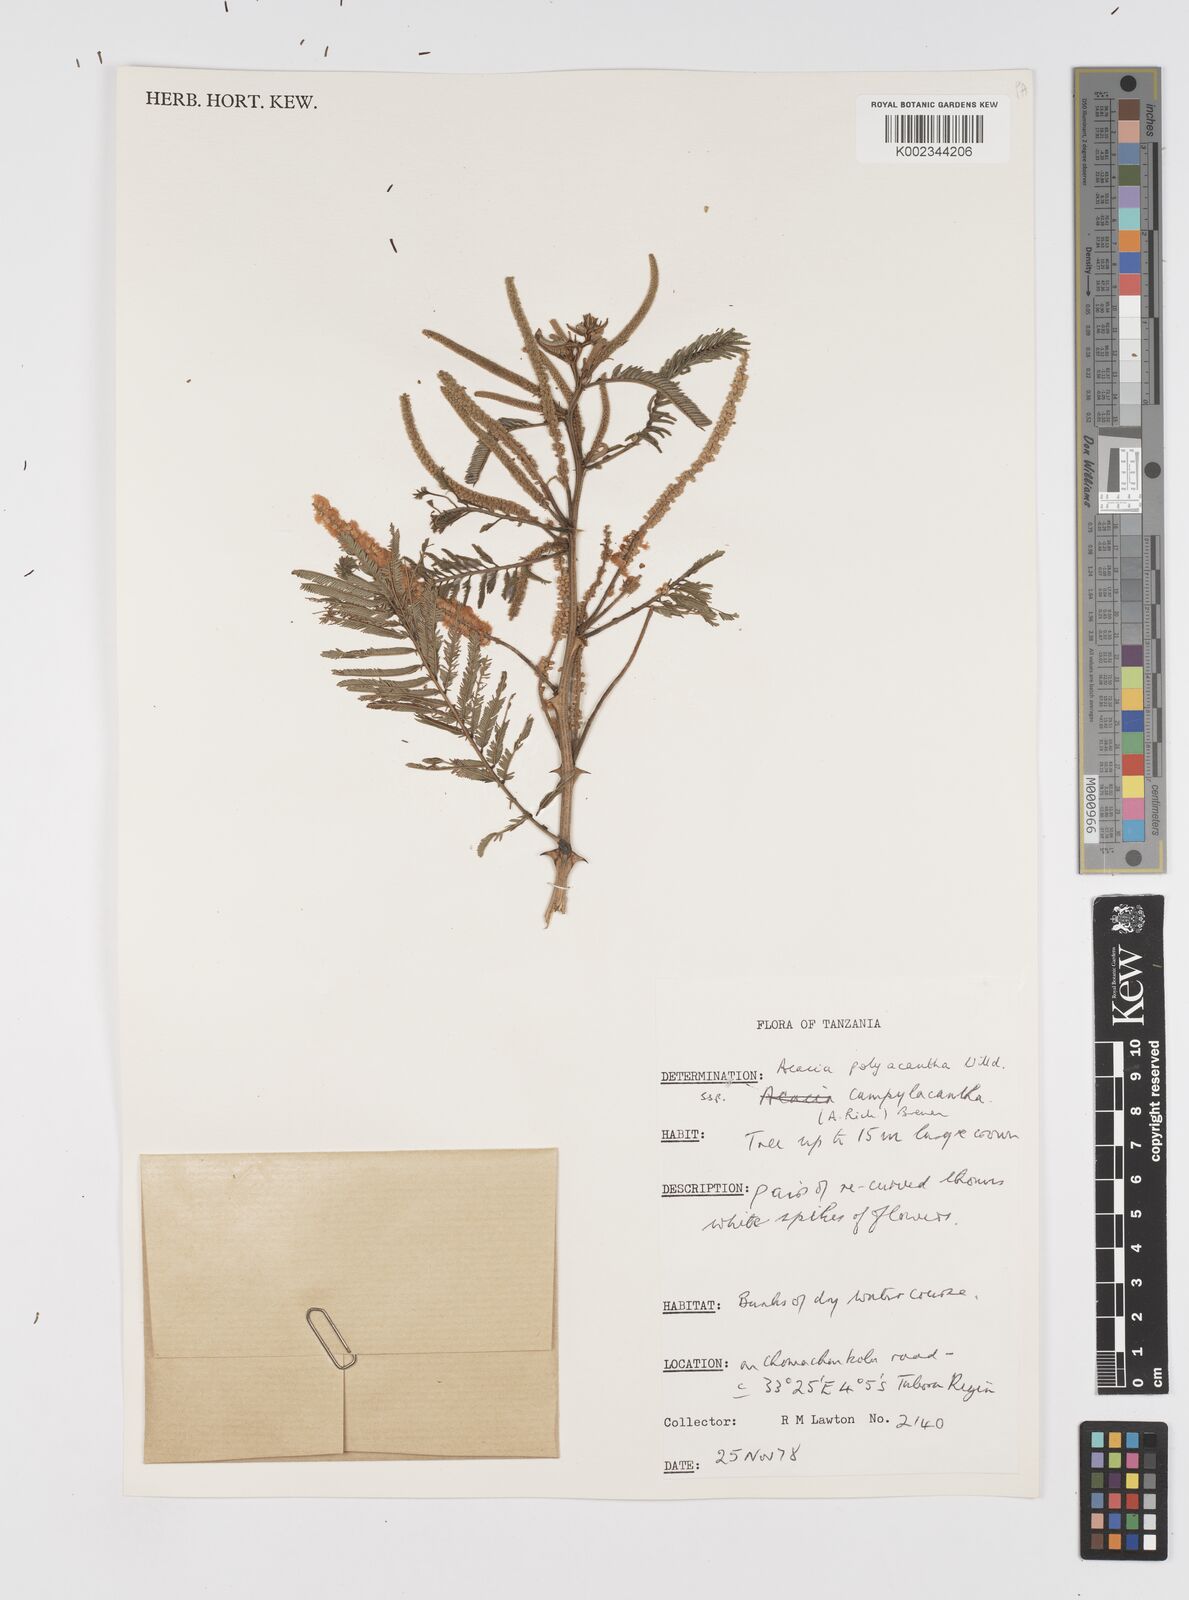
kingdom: Plantae
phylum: Tracheophyta
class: Magnoliopsida
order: Fabales
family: Fabaceae
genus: Senegalia
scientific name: Senegalia polyacantha
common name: Whitethorn
